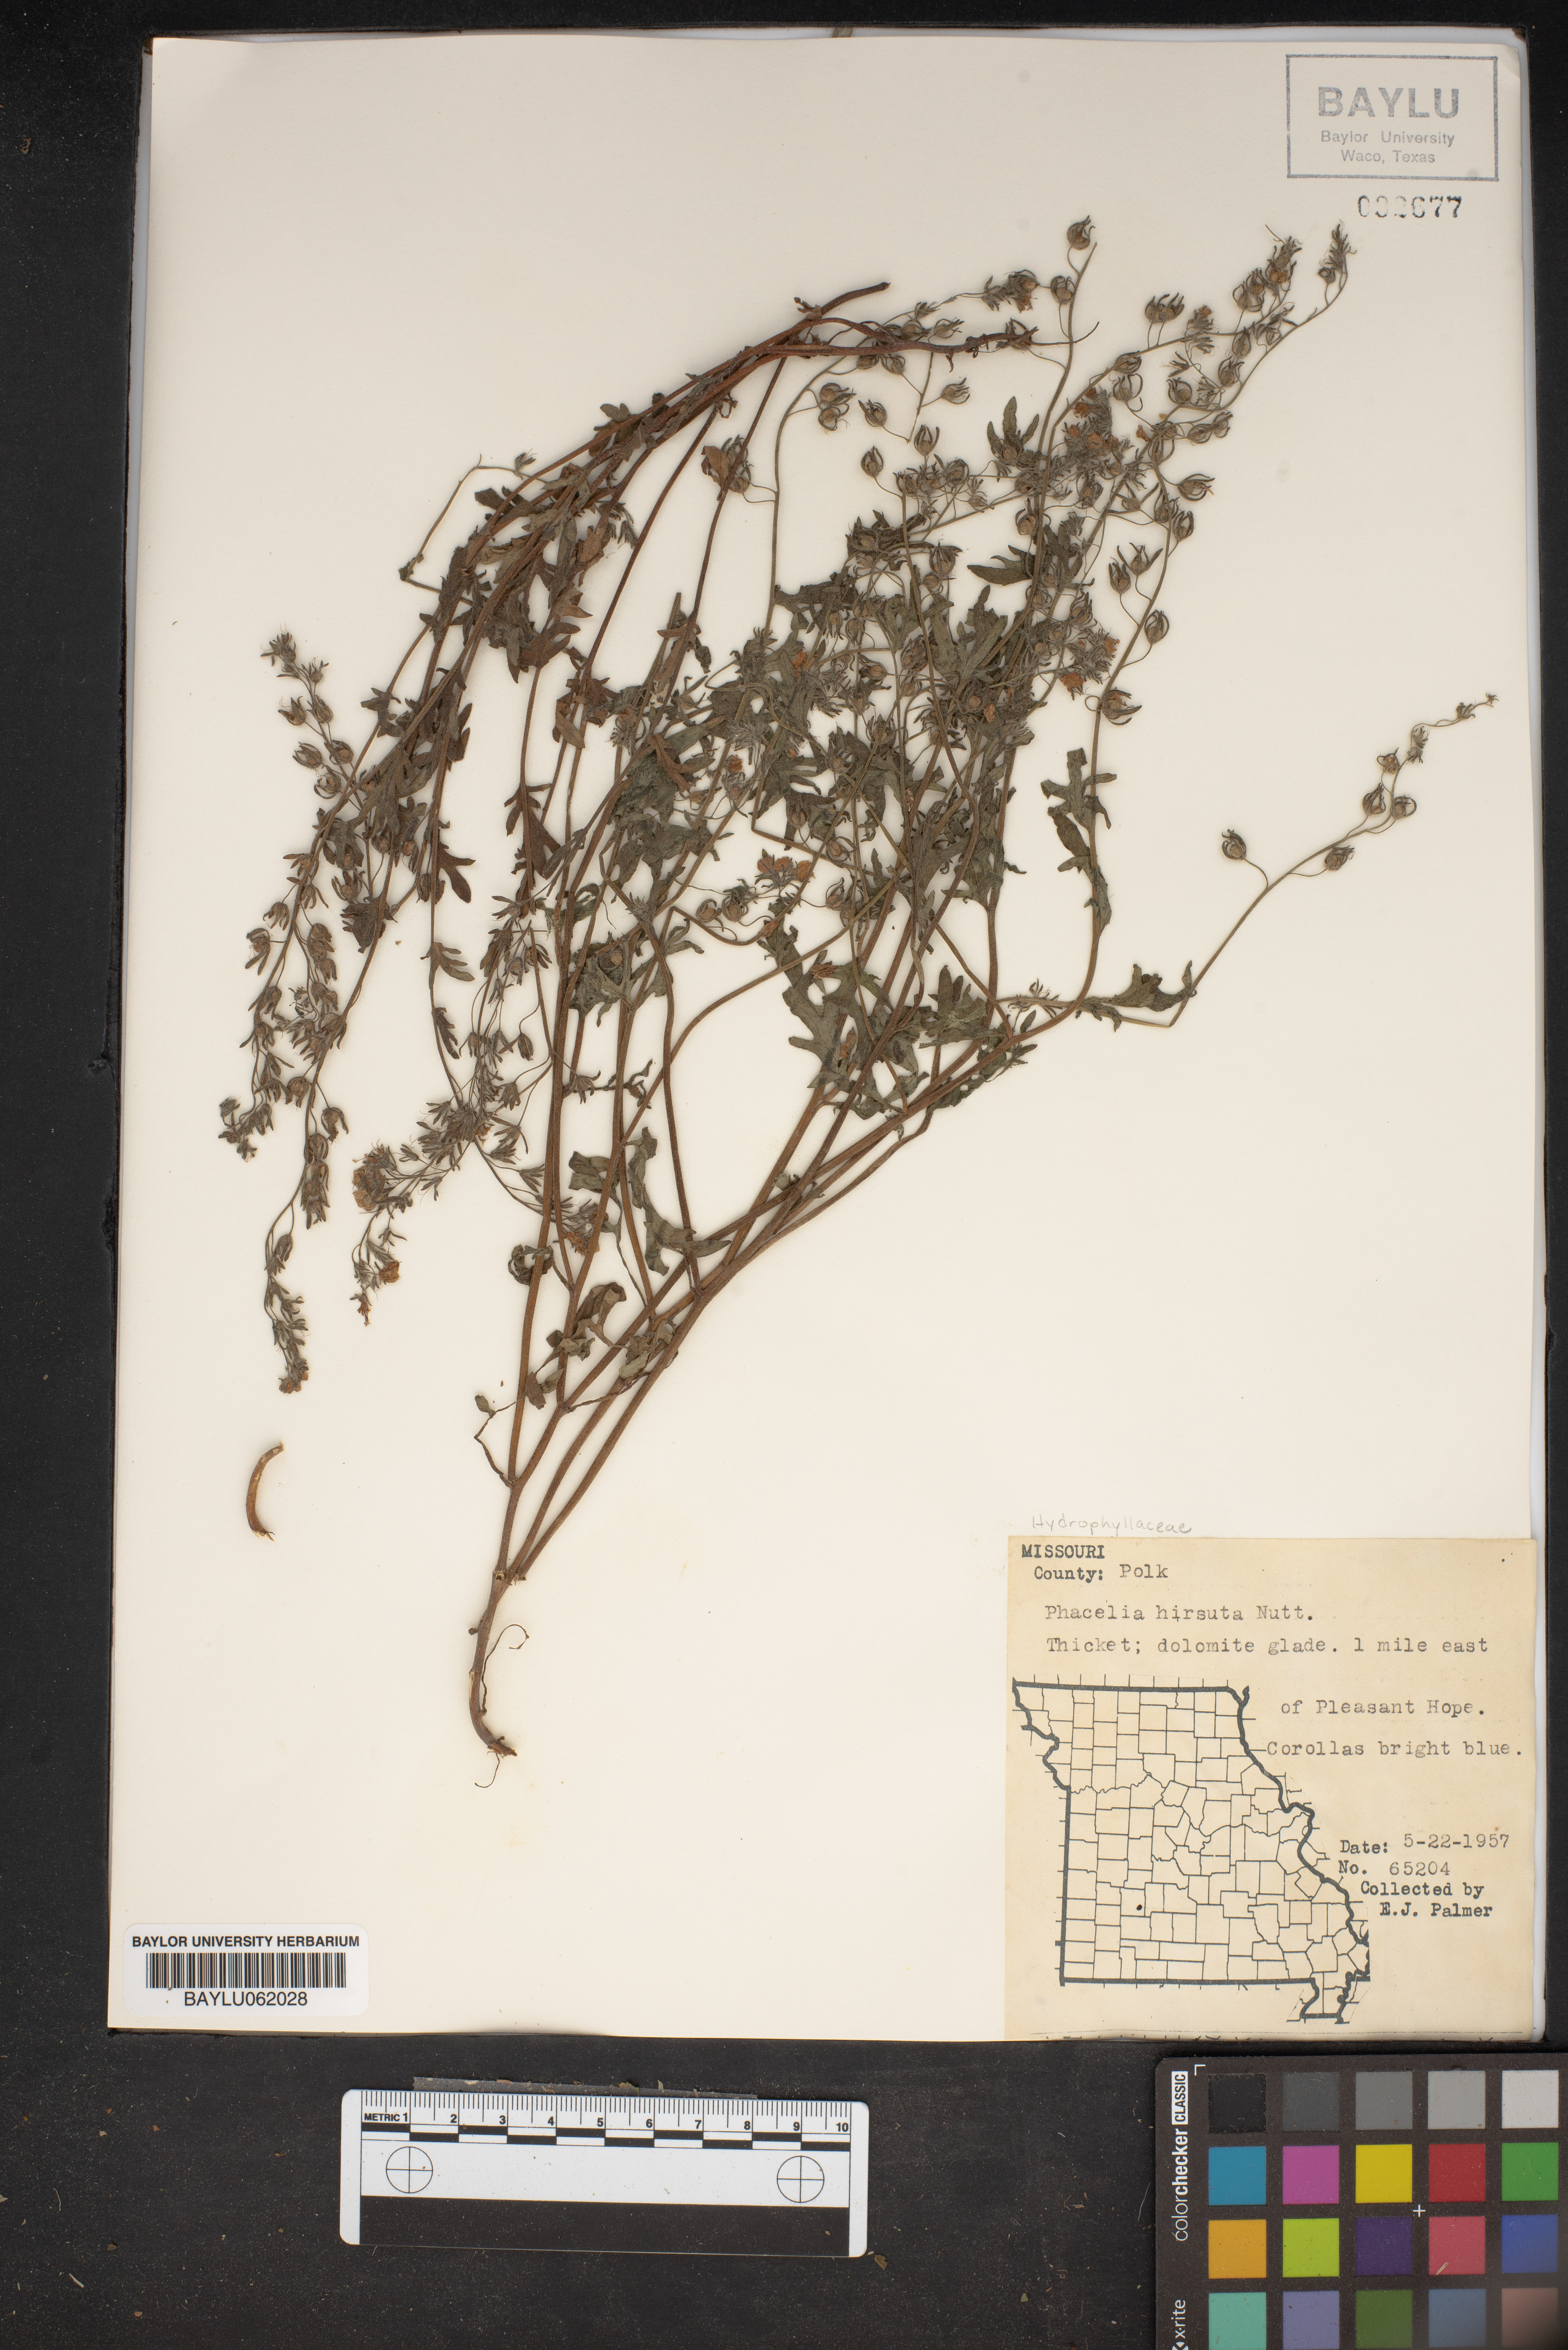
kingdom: Plantae
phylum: Tracheophyta
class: Magnoliopsida
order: Boraginales
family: Hydrophyllaceae
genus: Phacelia
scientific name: Phacelia hirsuta
